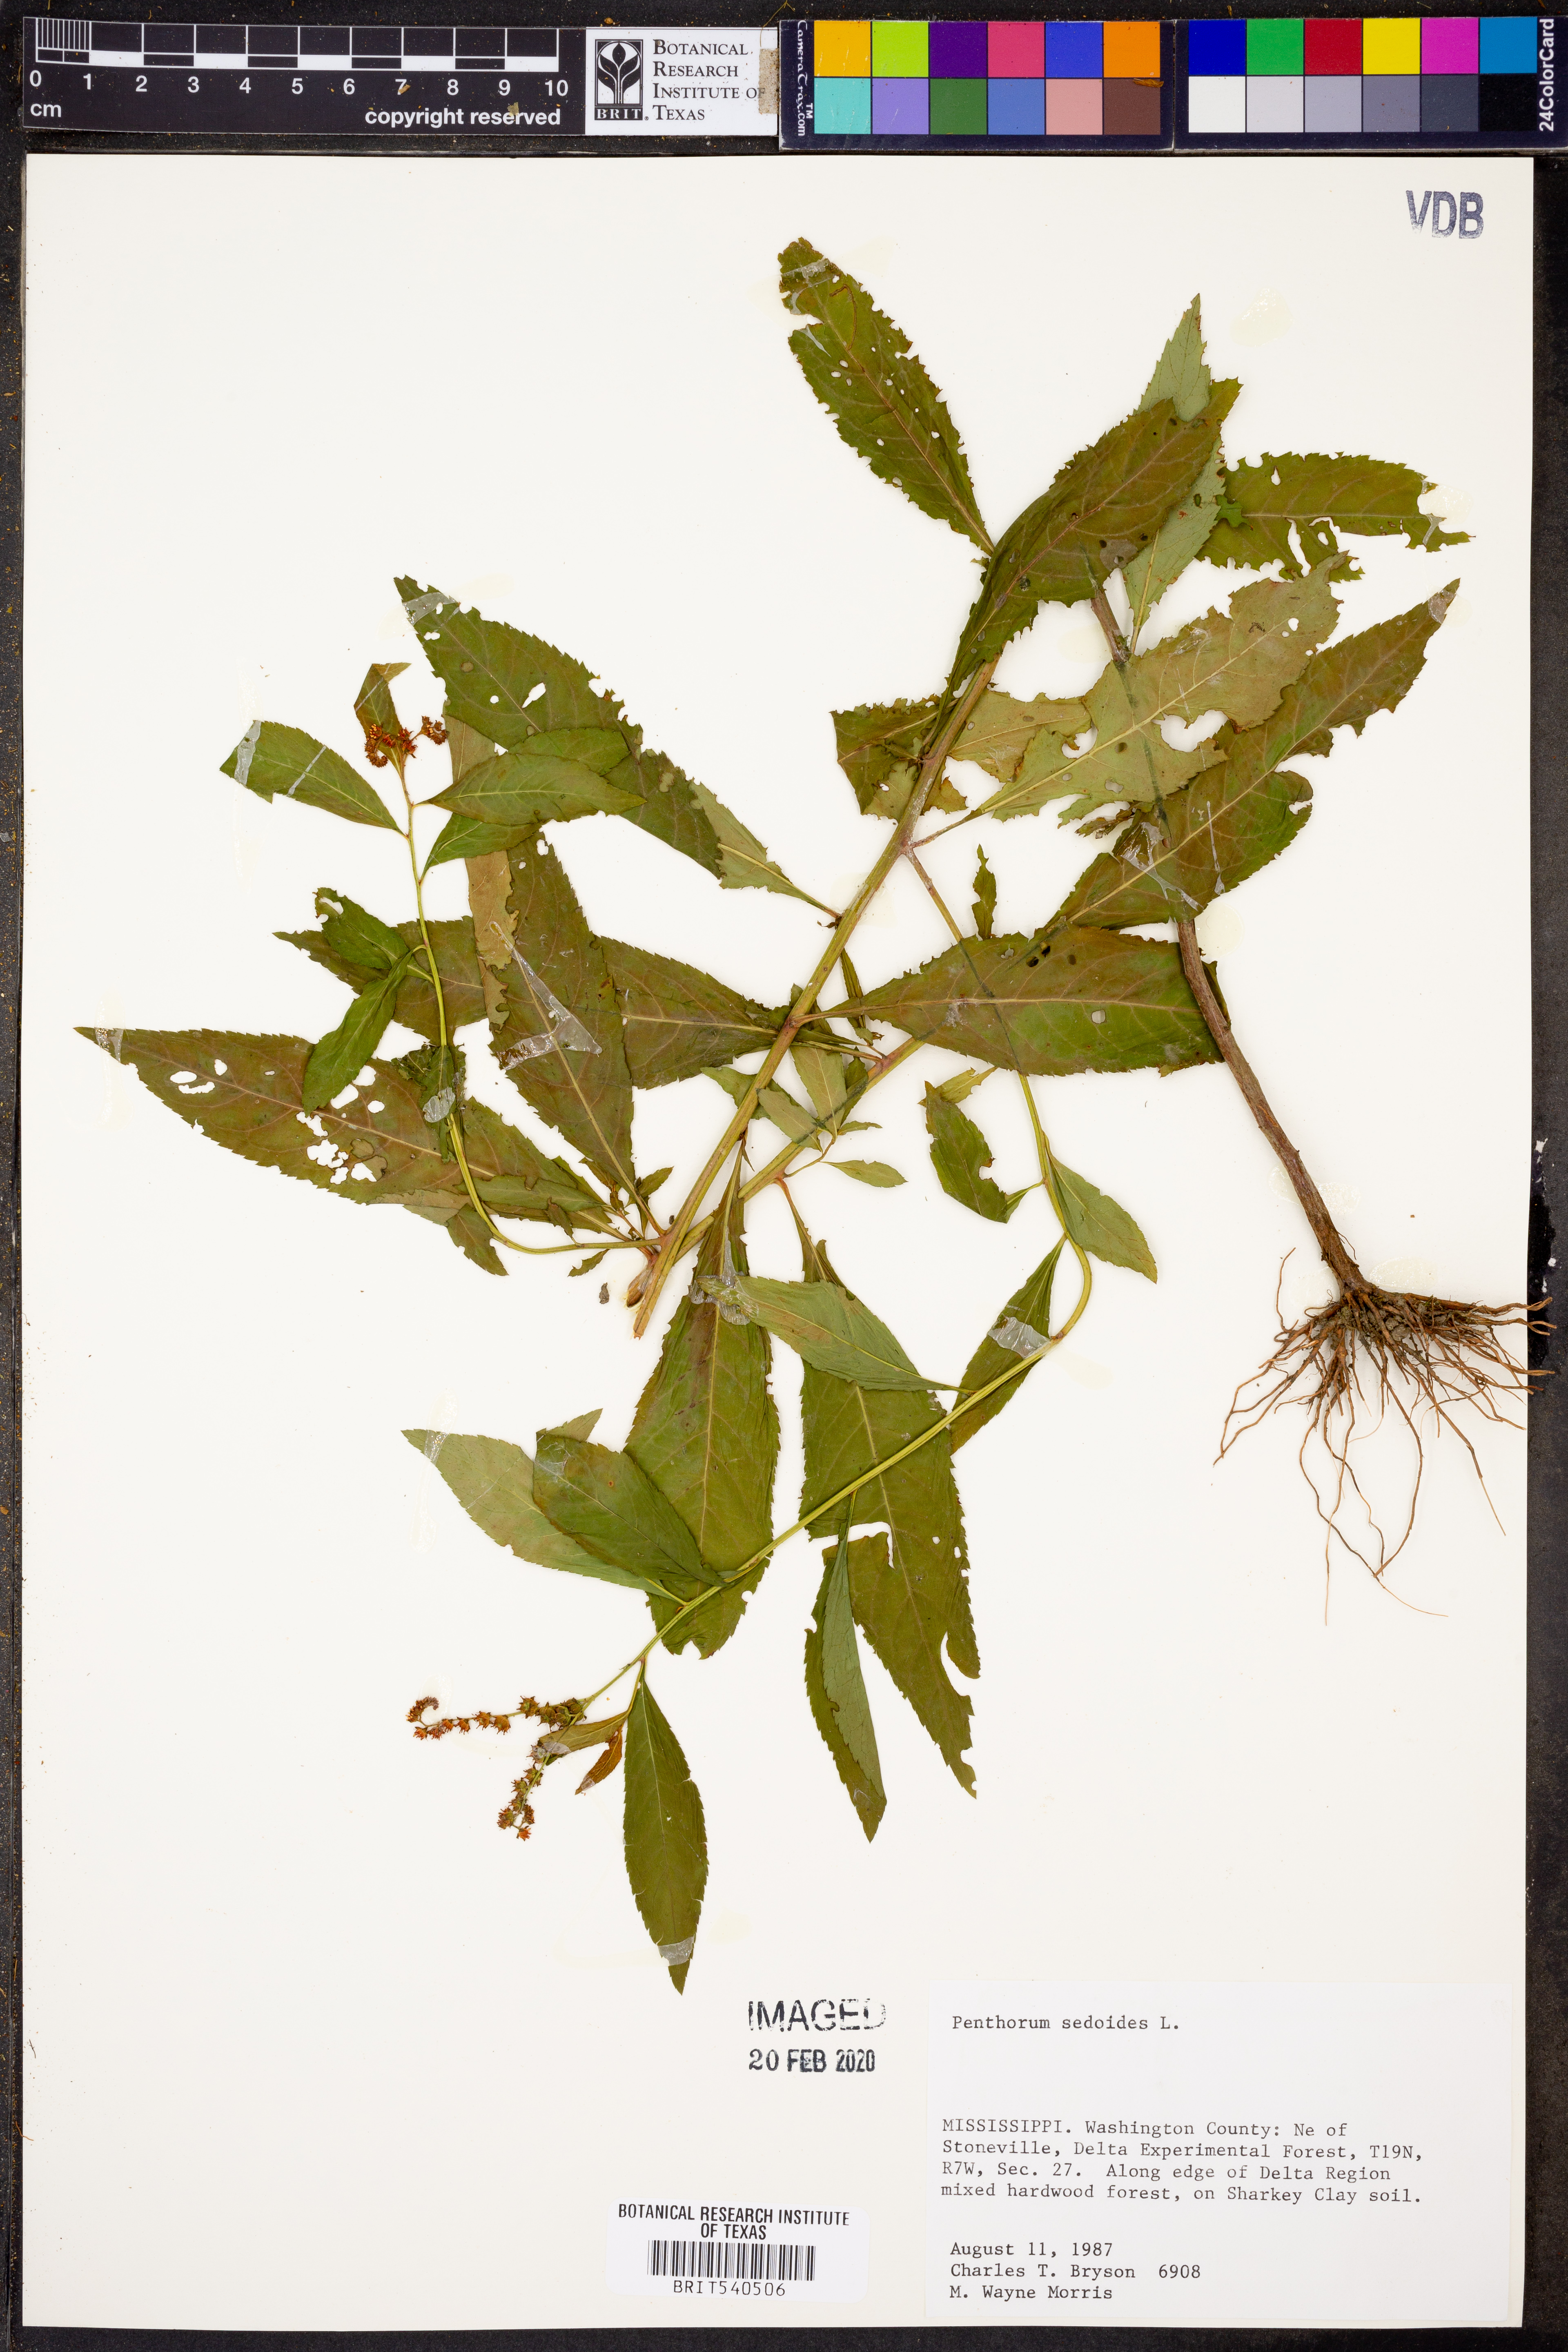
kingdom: Plantae
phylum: Tracheophyta
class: Magnoliopsida
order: Saxifragales
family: Penthoraceae
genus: Penthorum
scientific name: Penthorum sedoides
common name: Ditch stonecrop
